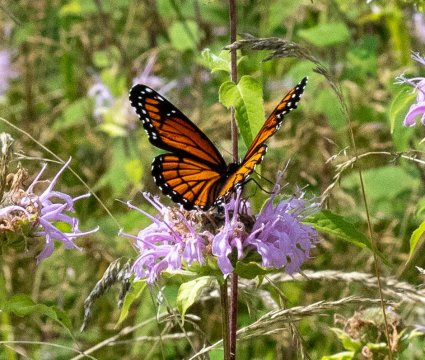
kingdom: Animalia
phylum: Arthropoda
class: Insecta
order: Lepidoptera
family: Nymphalidae
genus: Limenitis
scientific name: Limenitis archippus
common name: Viceroy
